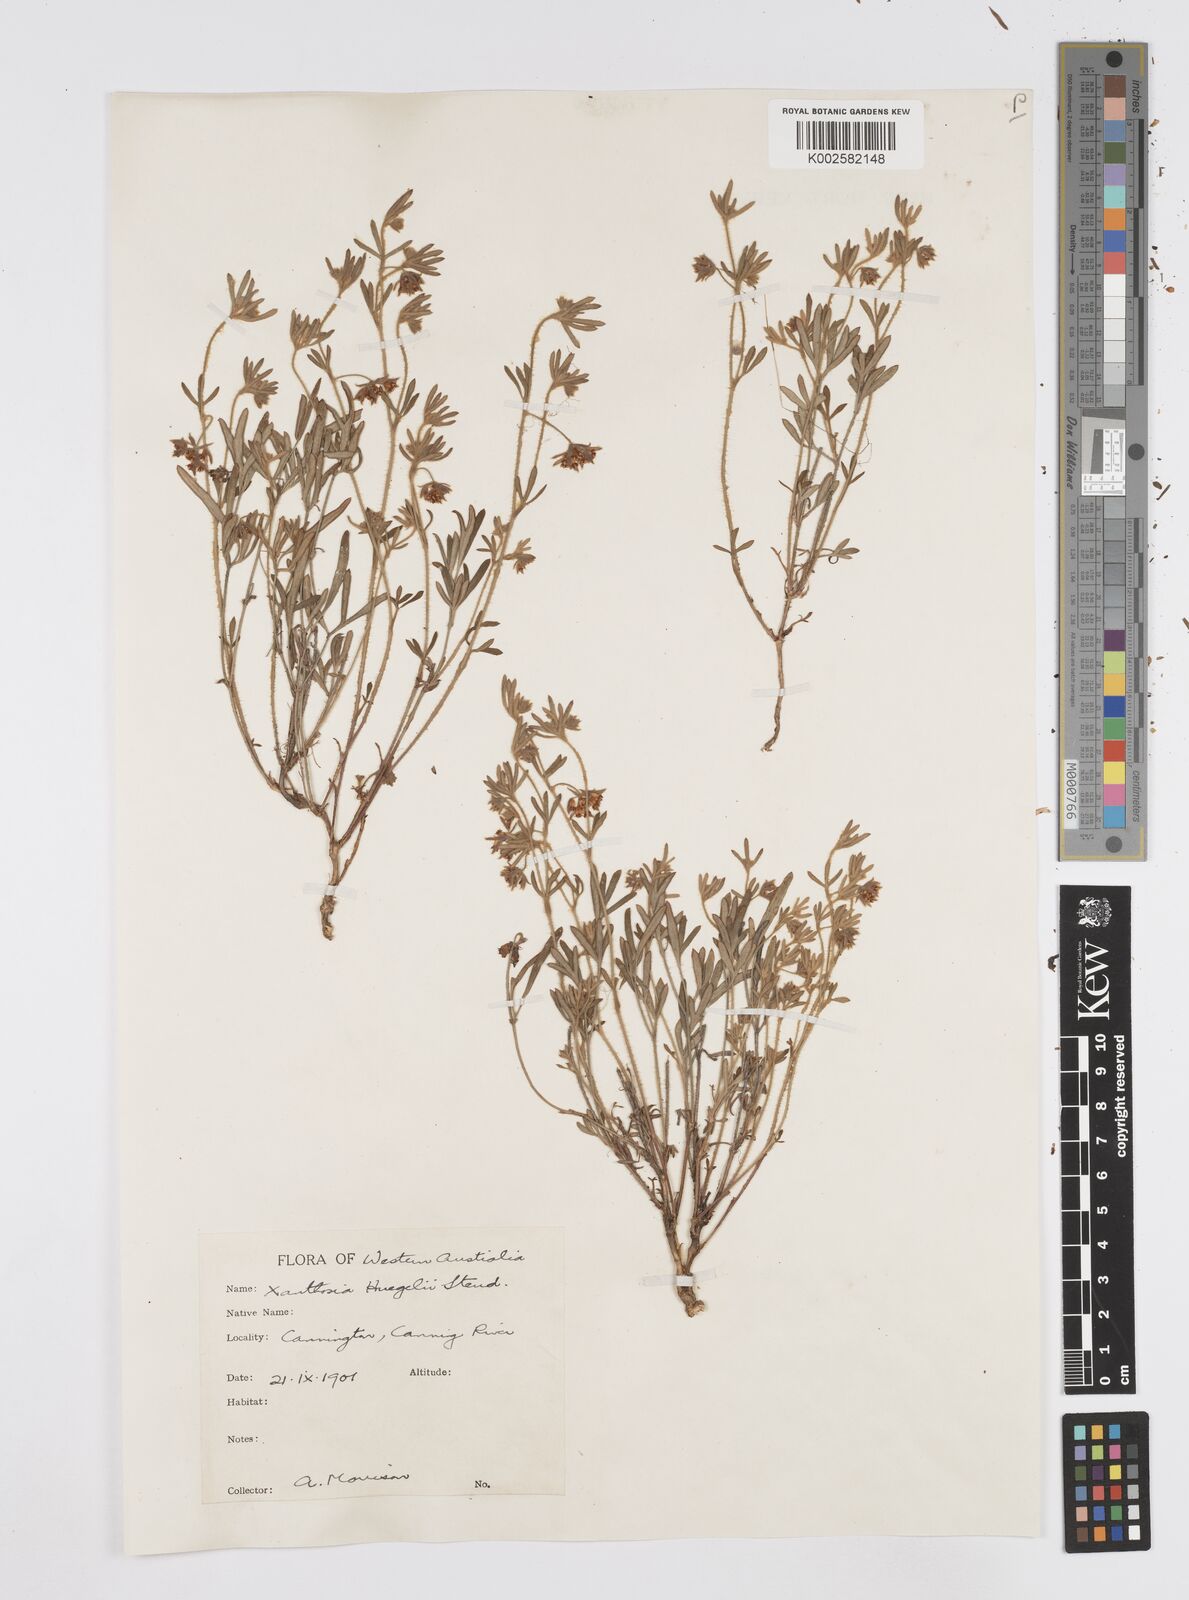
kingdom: Plantae
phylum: Tracheophyta
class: Magnoliopsida
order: Apiales
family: Apiaceae
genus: Xanthosia
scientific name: Xanthosia huegelii
